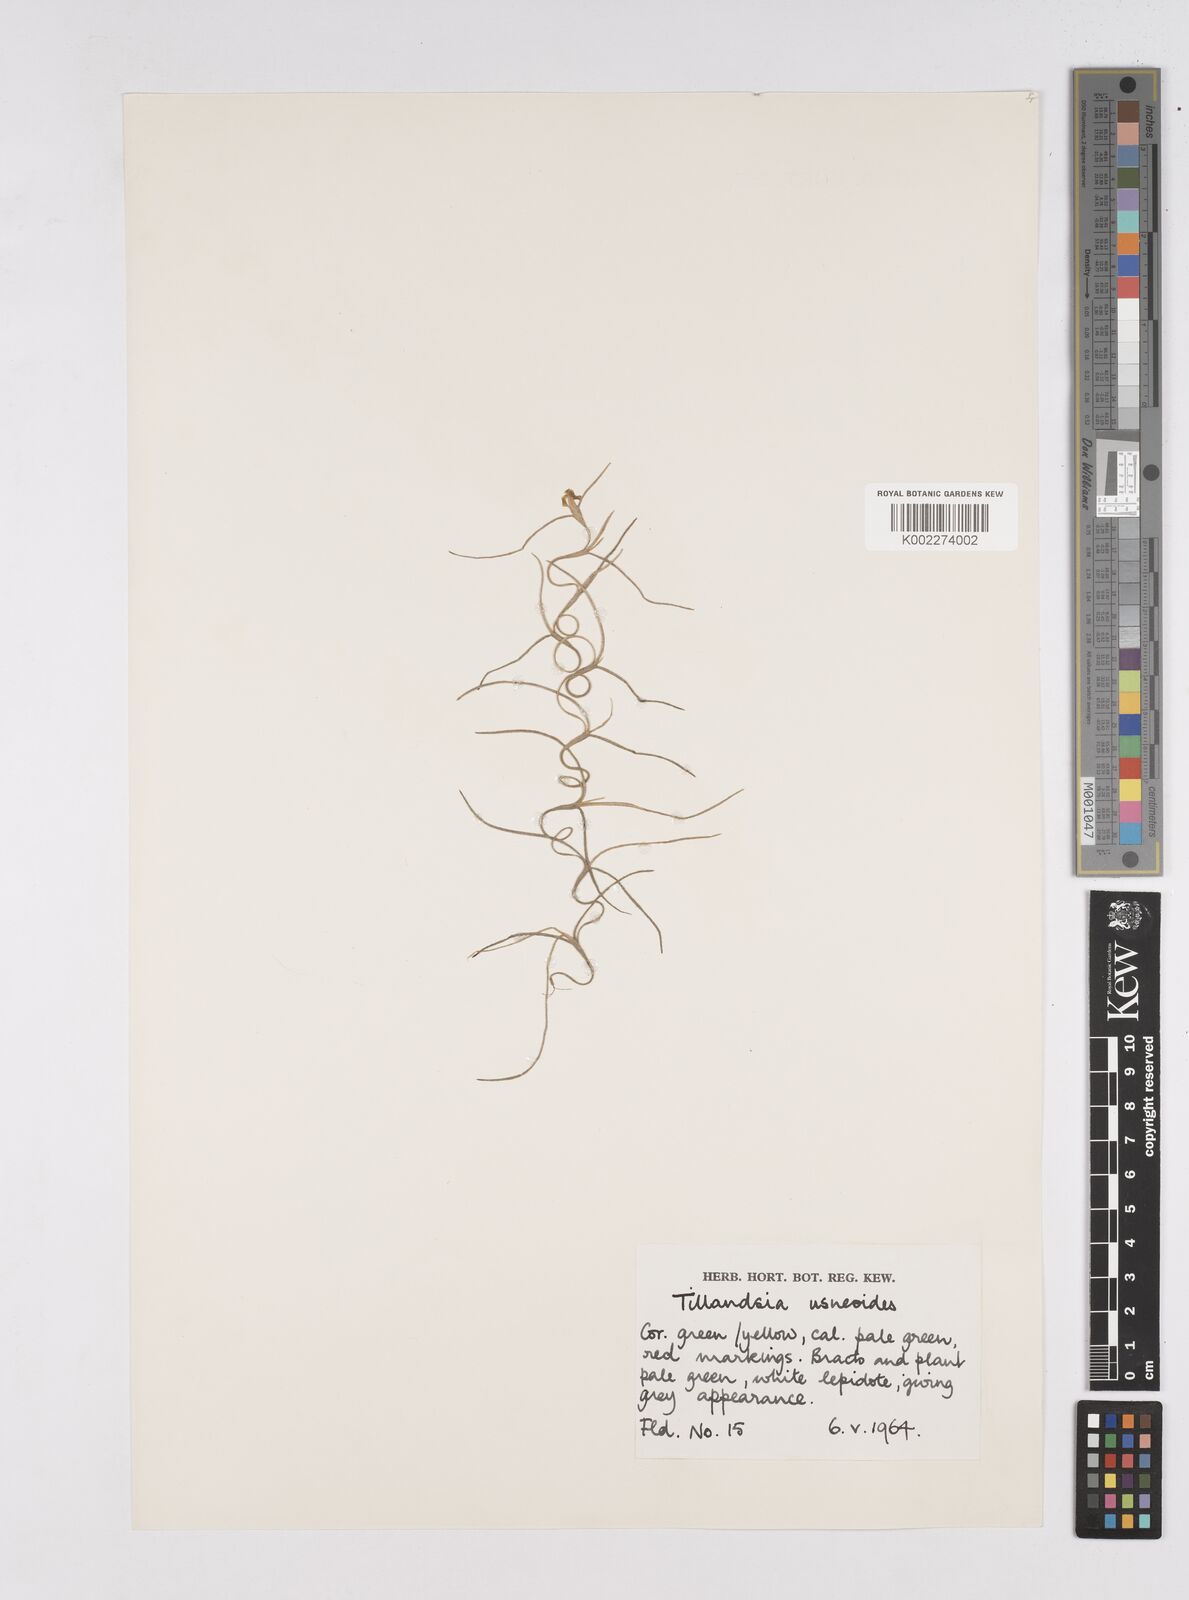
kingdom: Plantae
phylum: Tracheophyta
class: Liliopsida
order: Poales
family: Bromeliaceae
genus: Tillandsia
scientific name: Tillandsia usneoides
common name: Spanish moss
